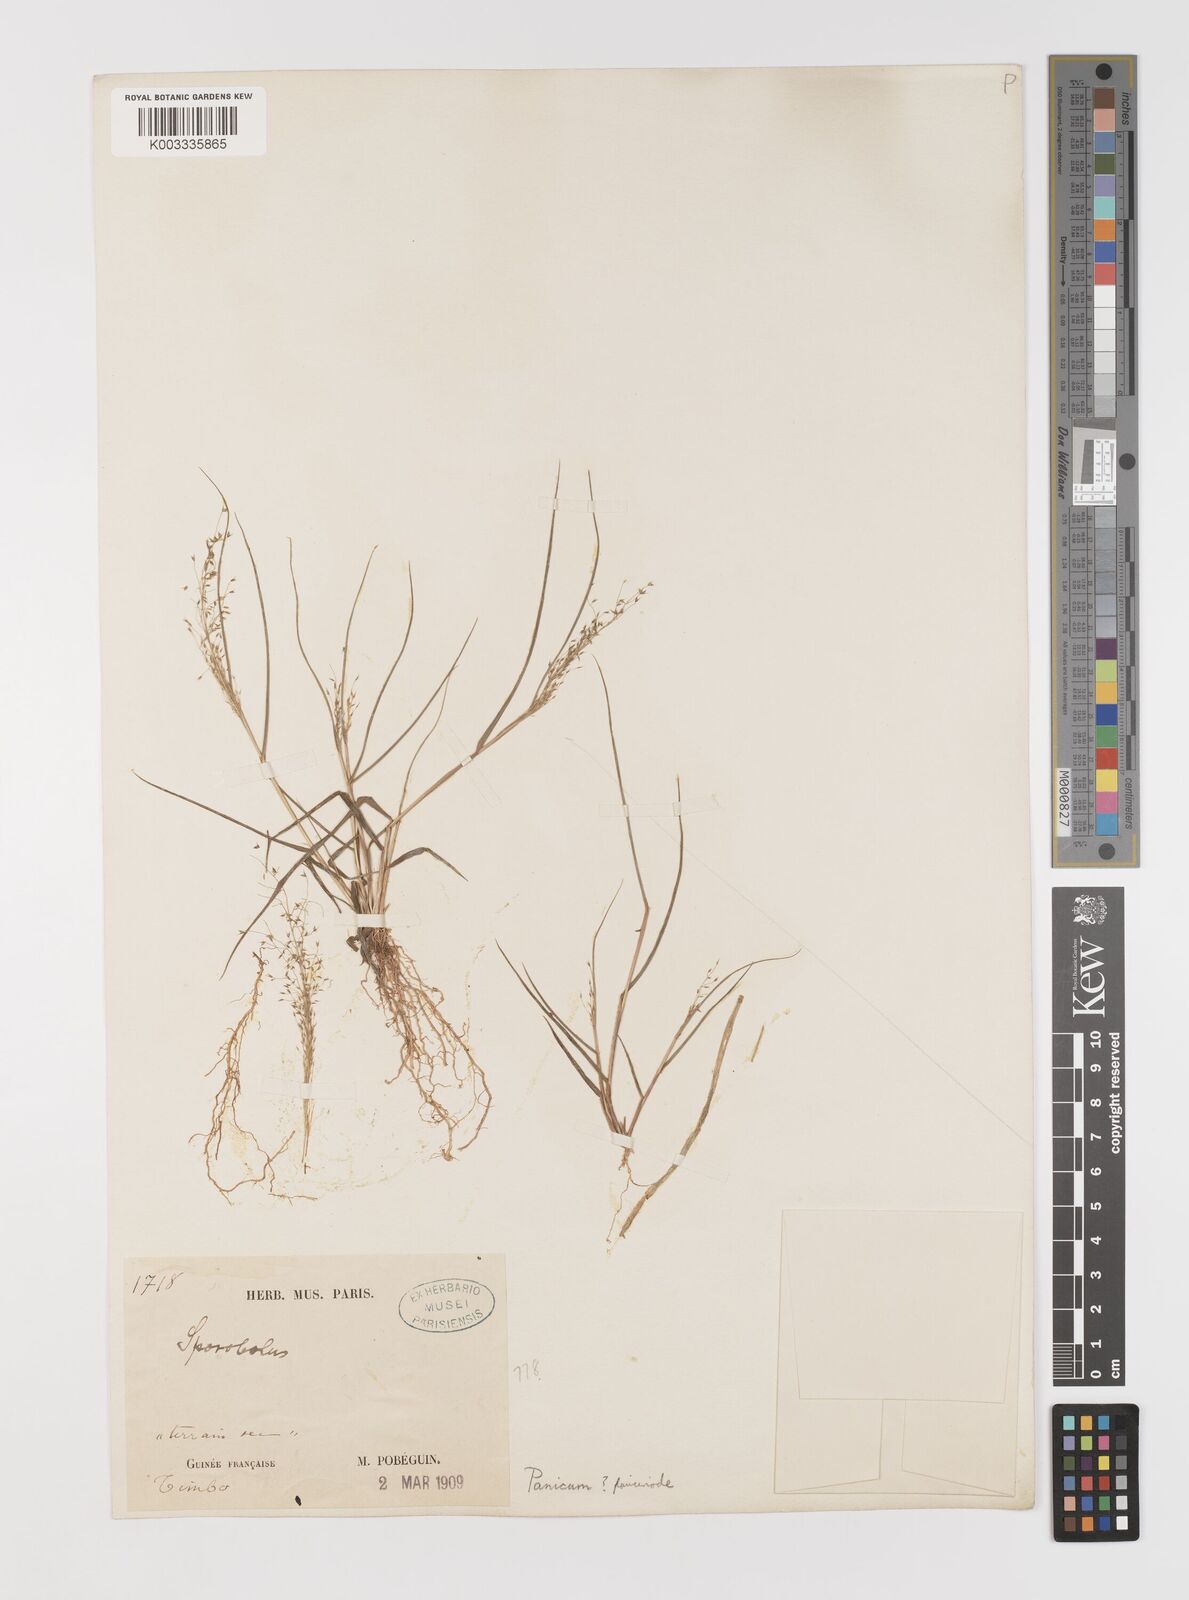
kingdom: Plantae
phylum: Tracheophyta
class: Liliopsida
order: Poales
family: Poaceae
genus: Panicum
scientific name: Panicum paucinode
